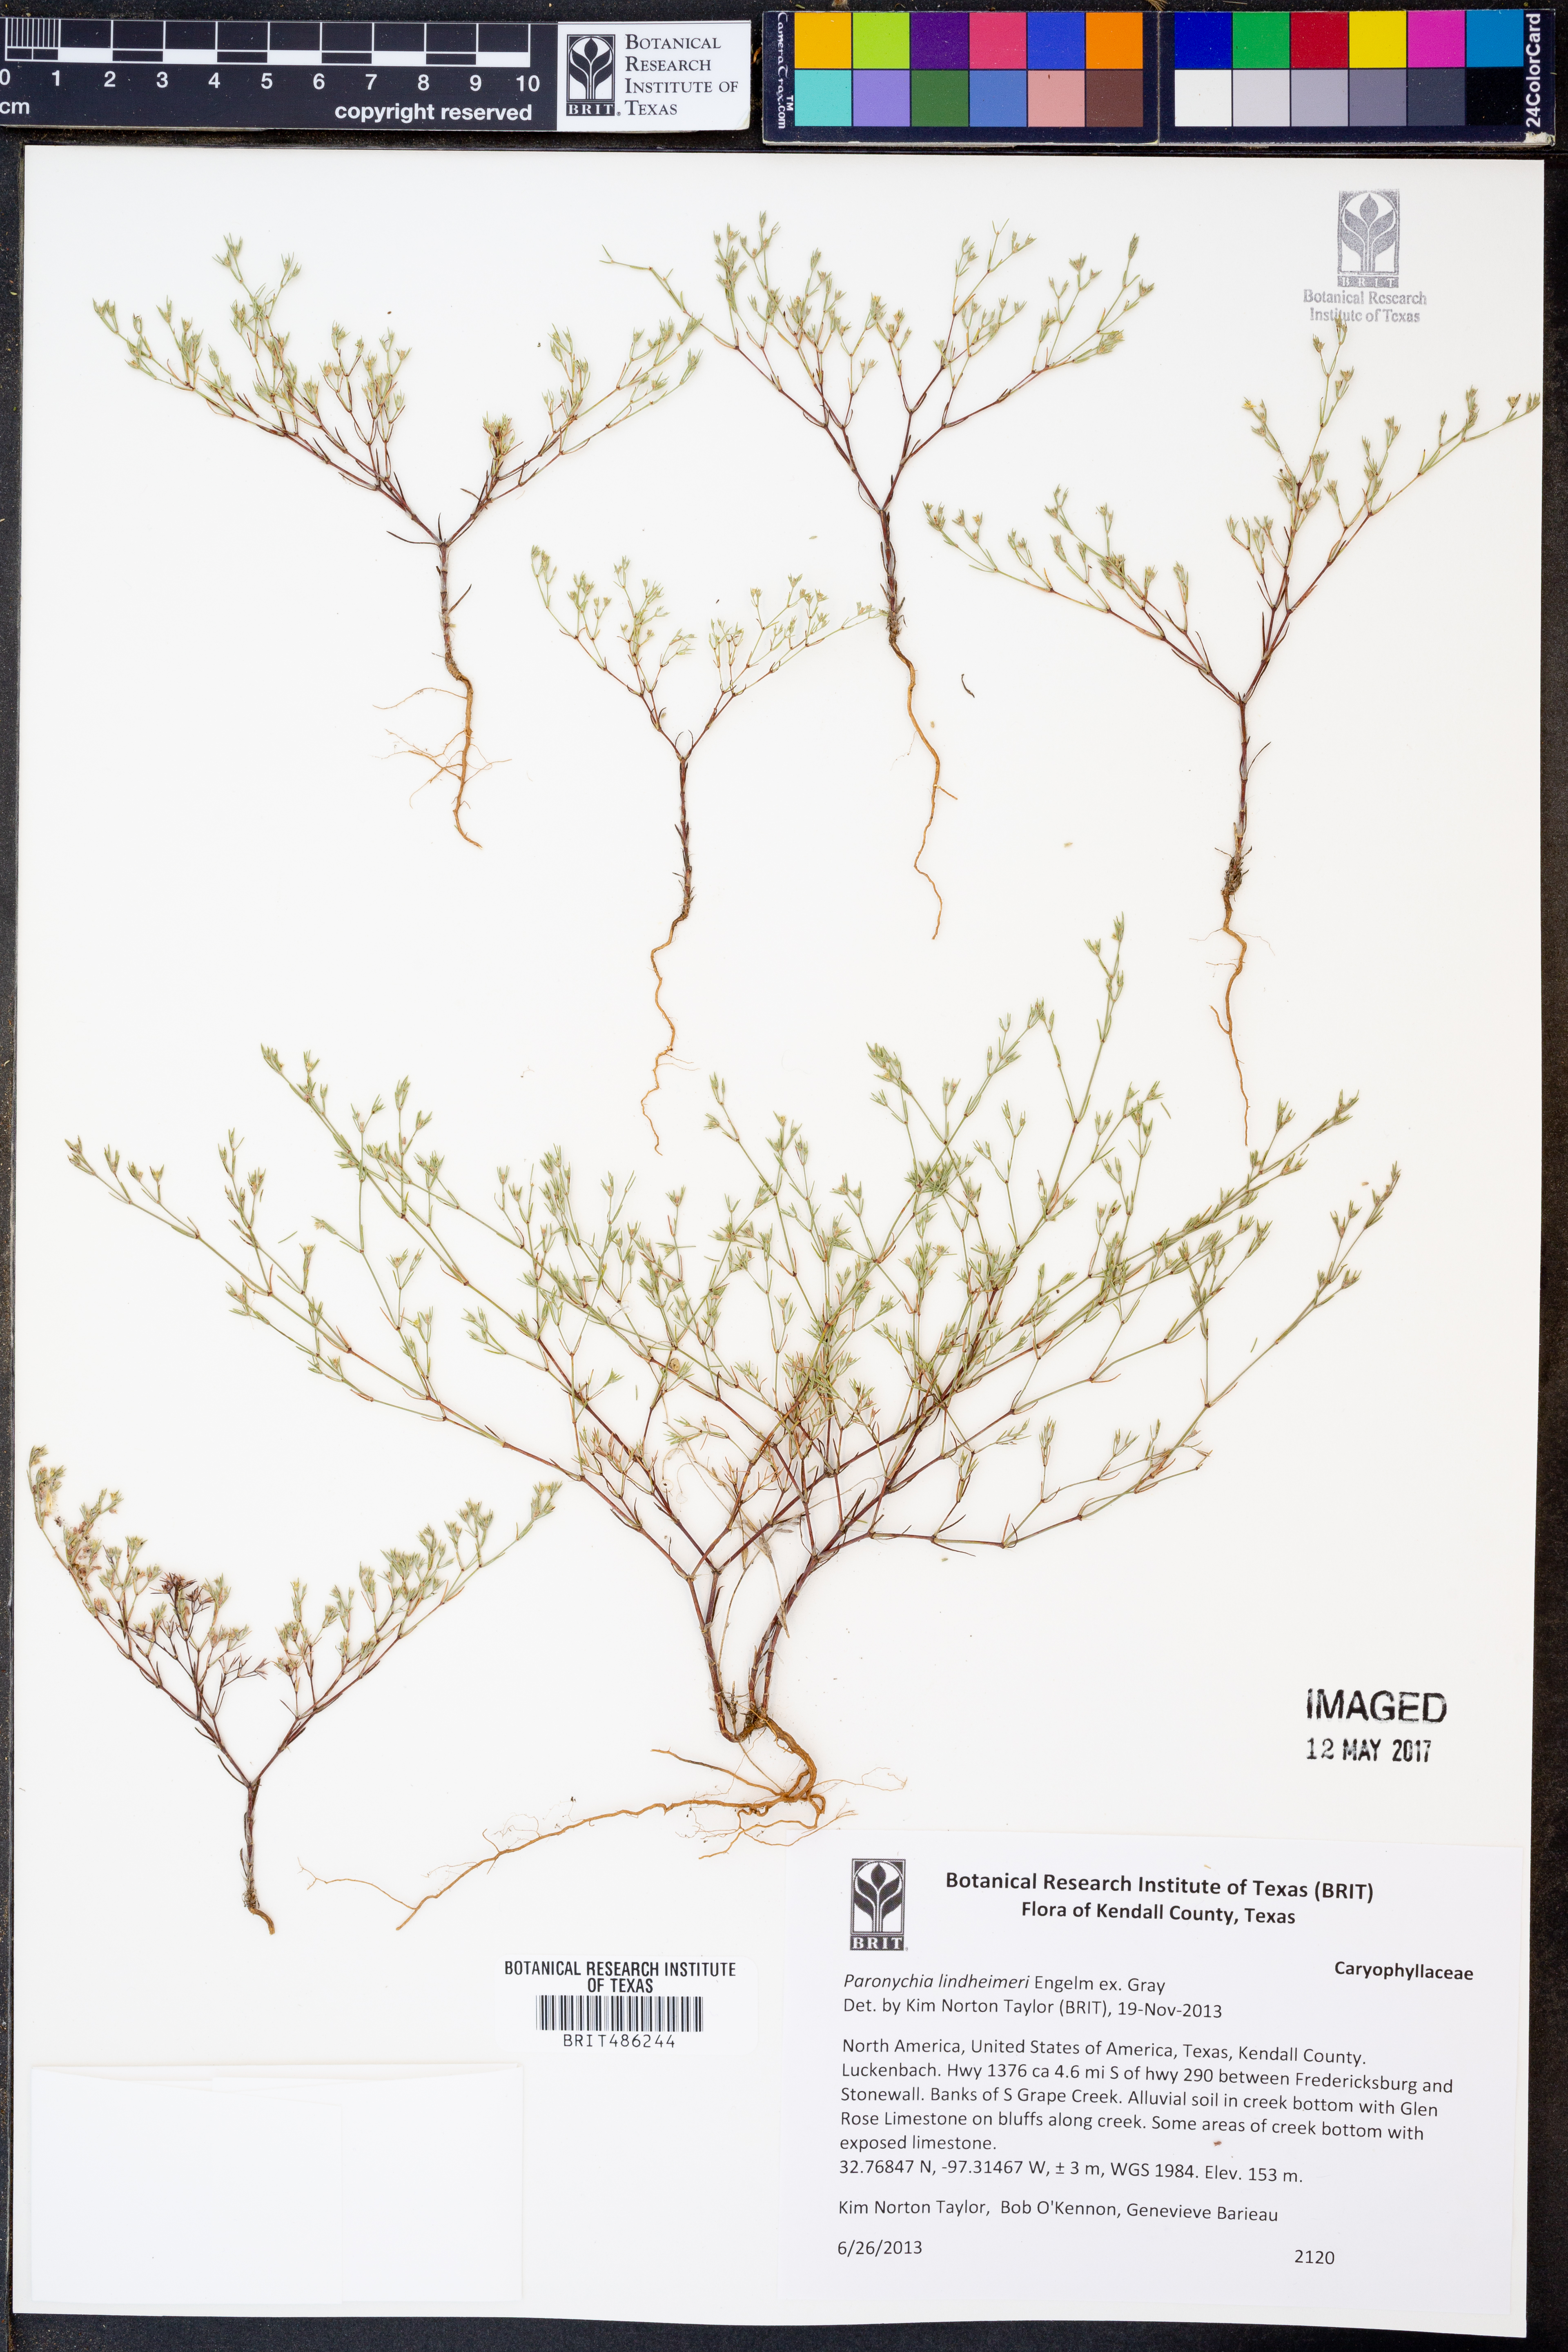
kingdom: Plantae
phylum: Tracheophyta
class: Magnoliopsida
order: Caryophyllales
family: Caryophyllaceae
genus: Paronychia
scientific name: Paronychia lindheimeri
